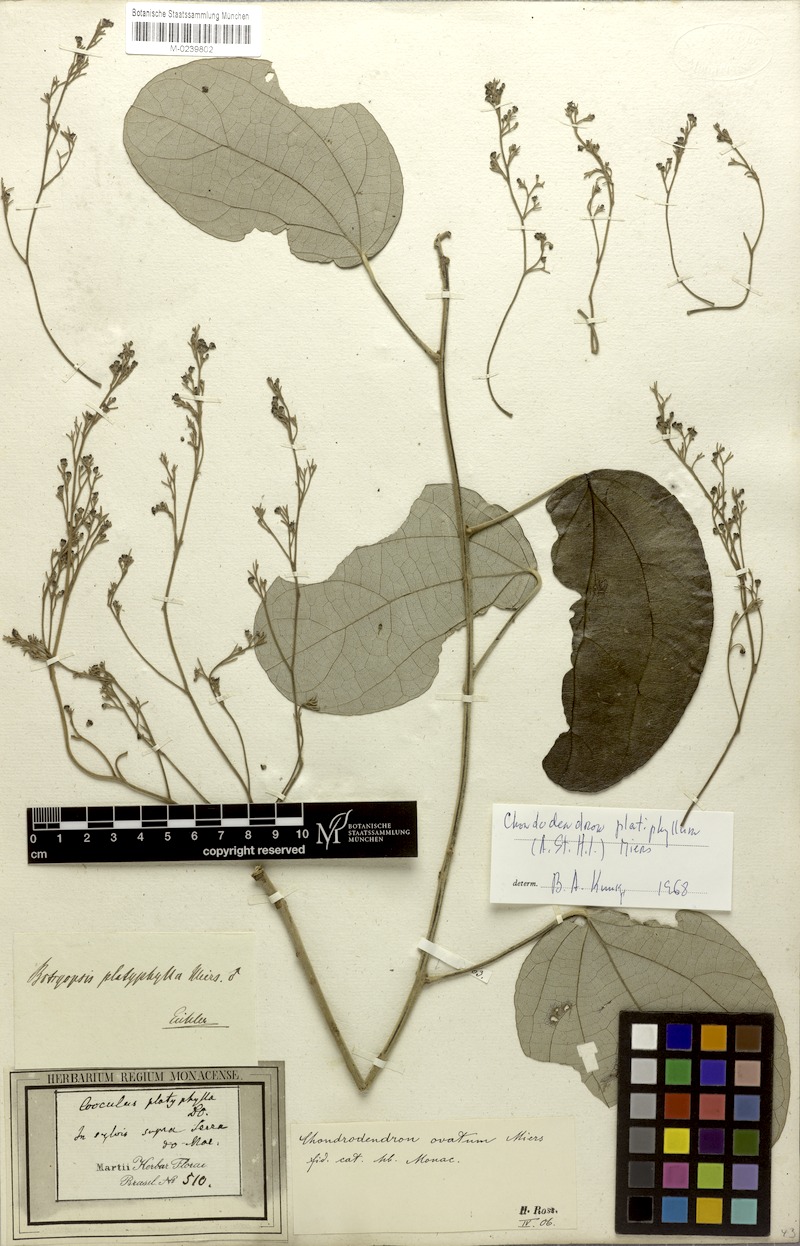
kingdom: Plantae
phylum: Tracheophyta
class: Magnoliopsida
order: Ranunculales
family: Menispermaceae
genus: Chondrodendron
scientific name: Chondrodendron platyphyllum
